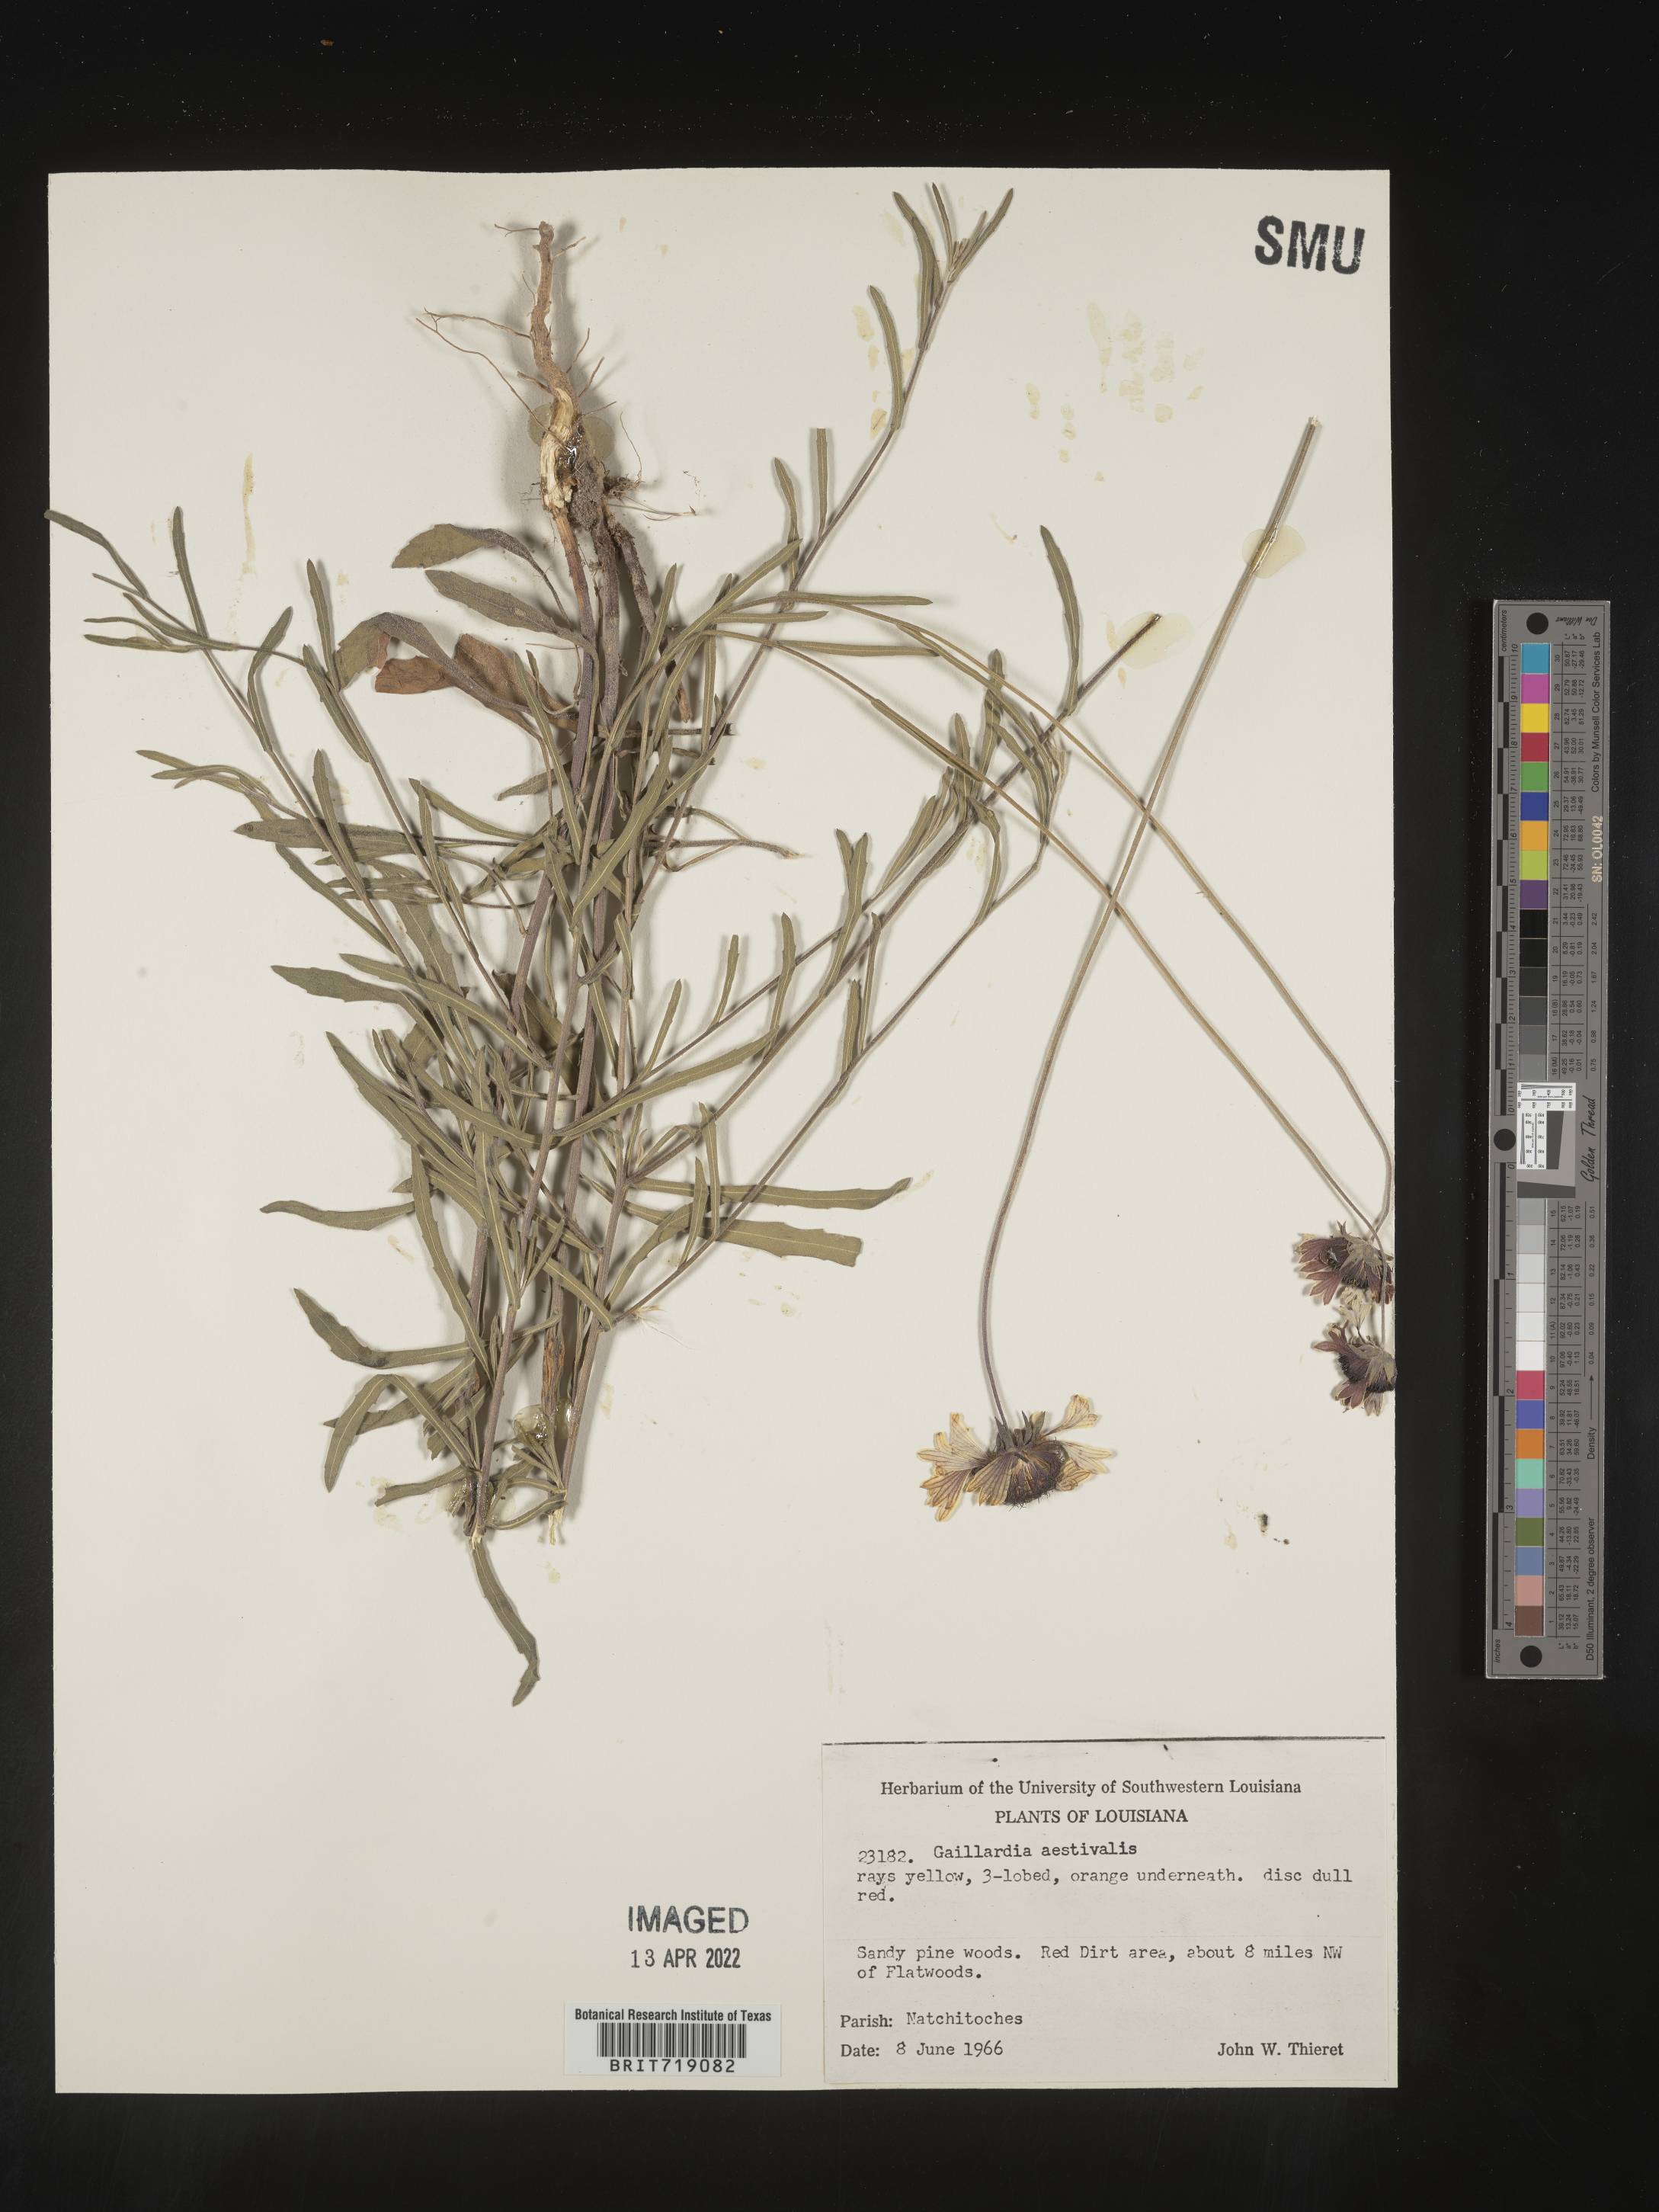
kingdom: Plantae
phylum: Tracheophyta
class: Magnoliopsida
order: Asterales
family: Asteraceae
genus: Gaillardia
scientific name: Gaillardia aestivalis
